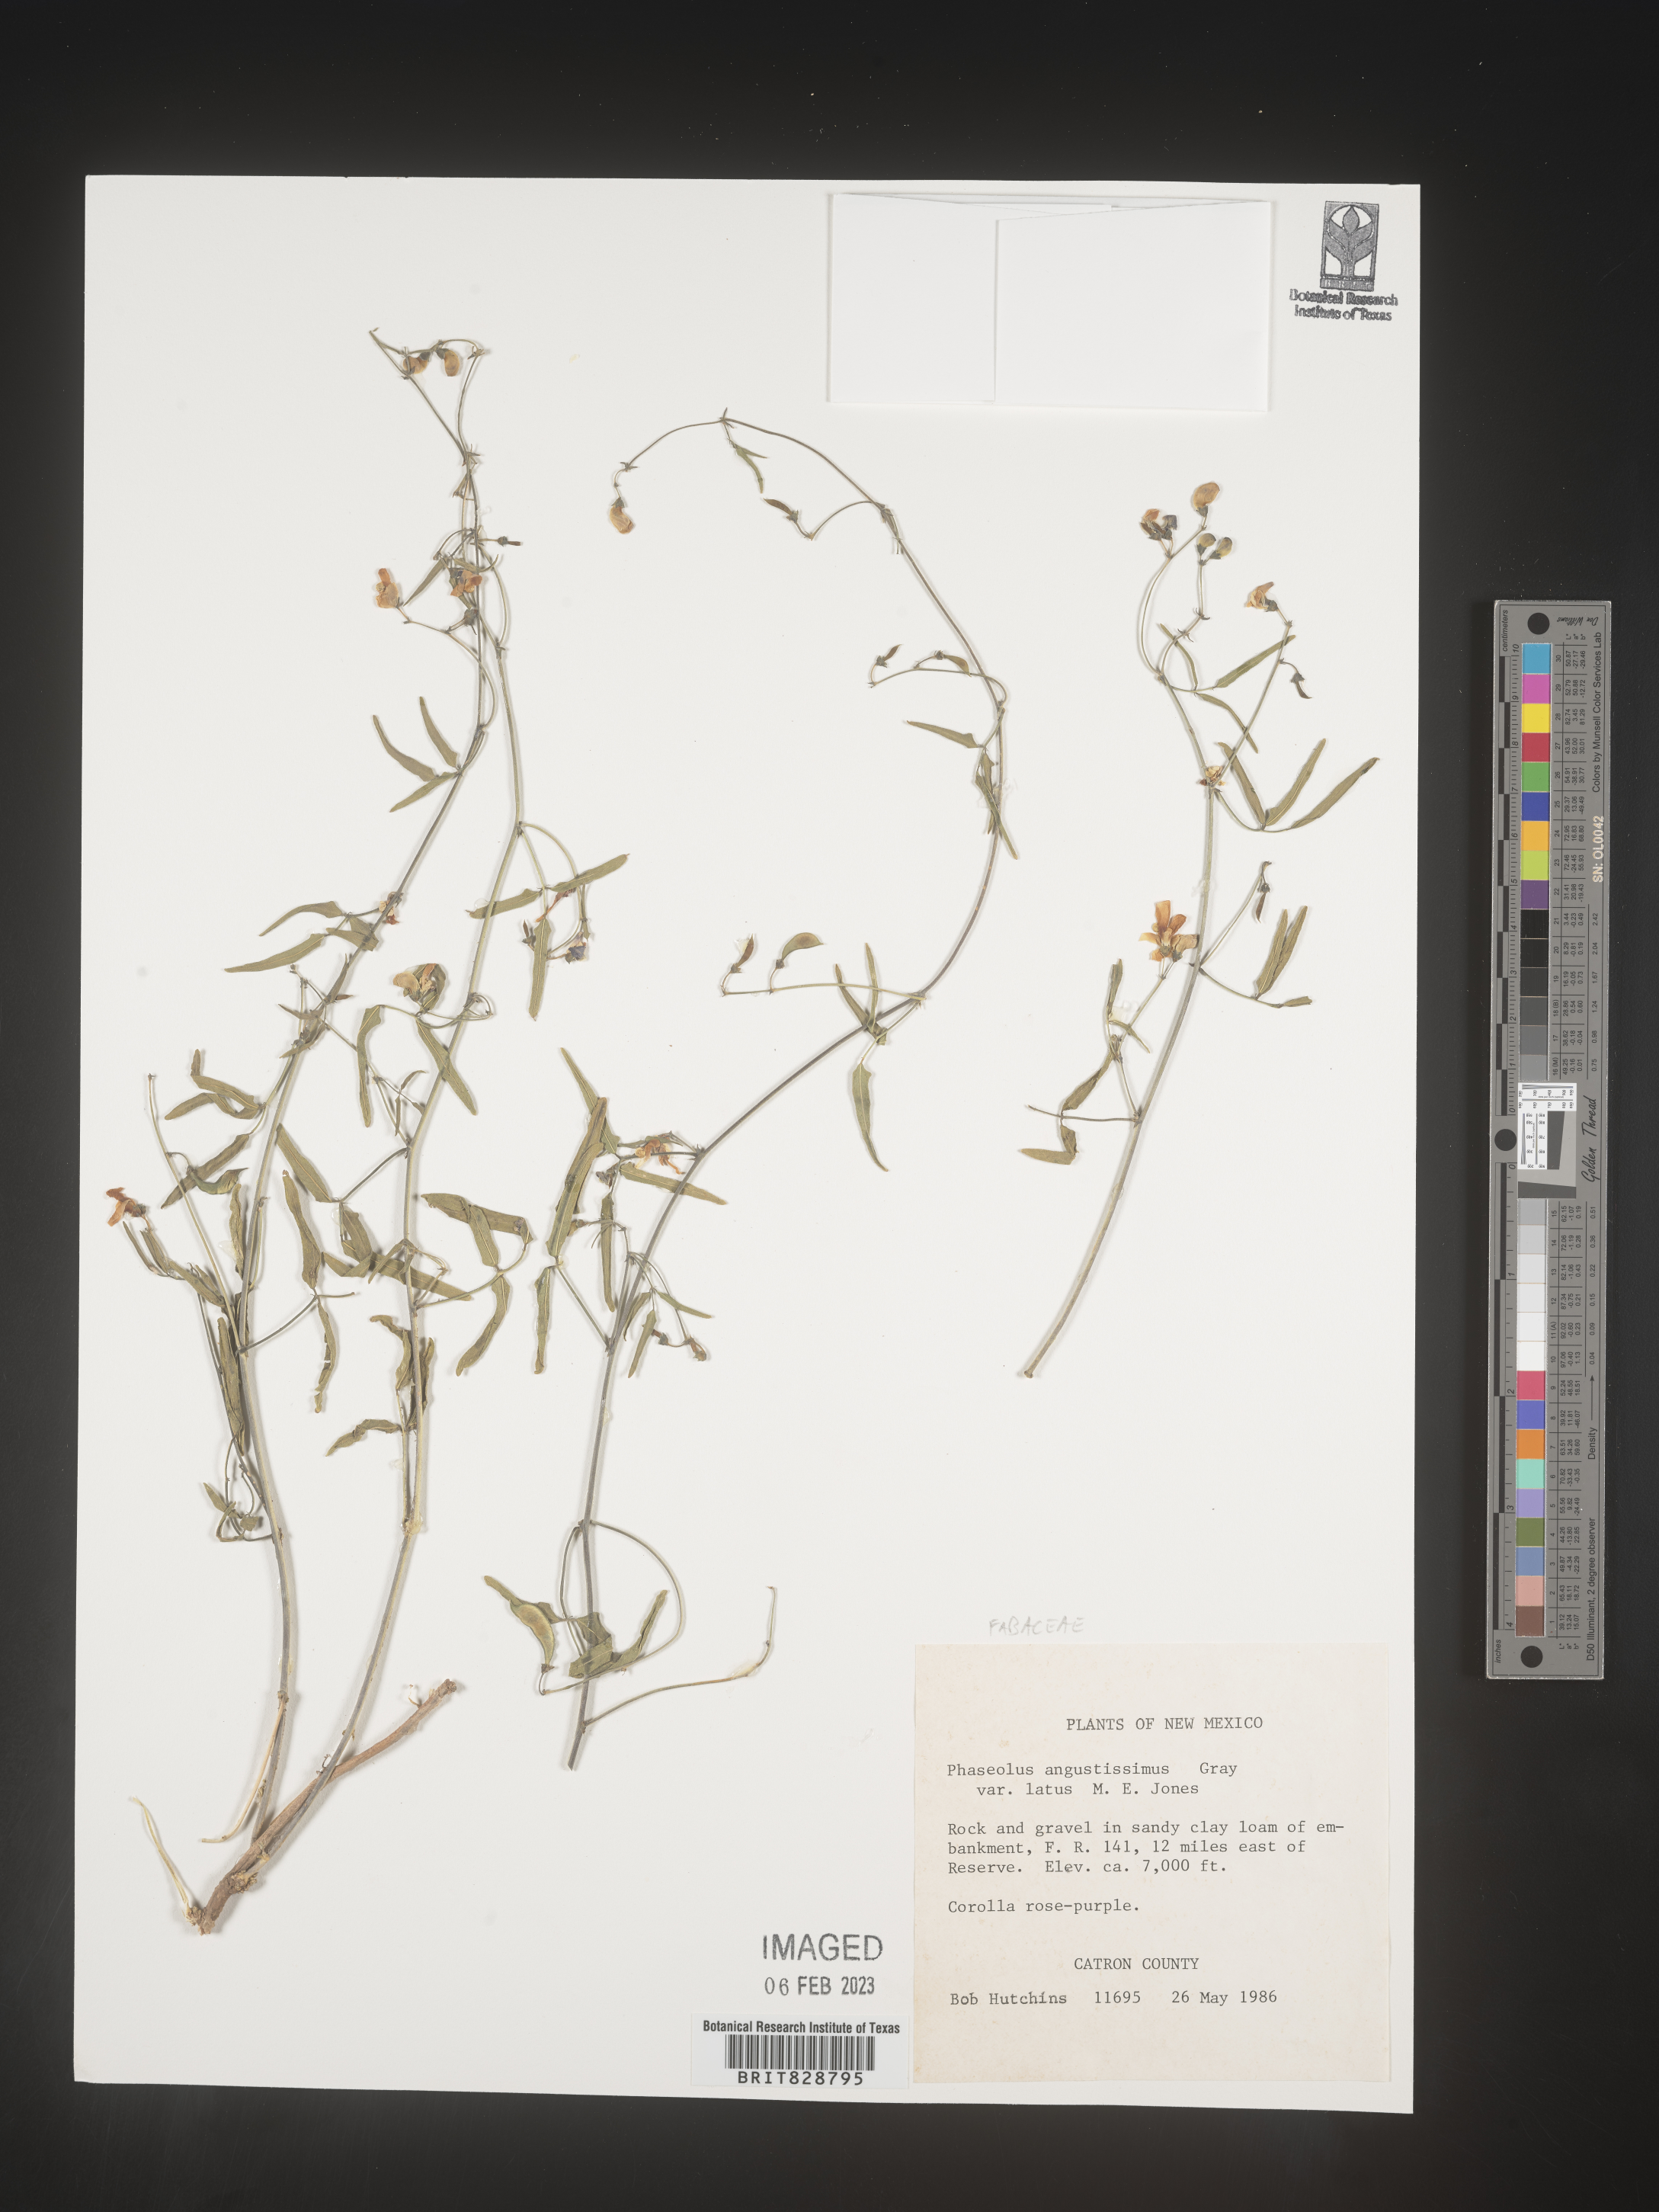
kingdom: Plantae
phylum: Tracheophyta
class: Magnoliopsida
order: Fabales
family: Fabaceae
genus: Phaseolus
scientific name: Phaseolus
